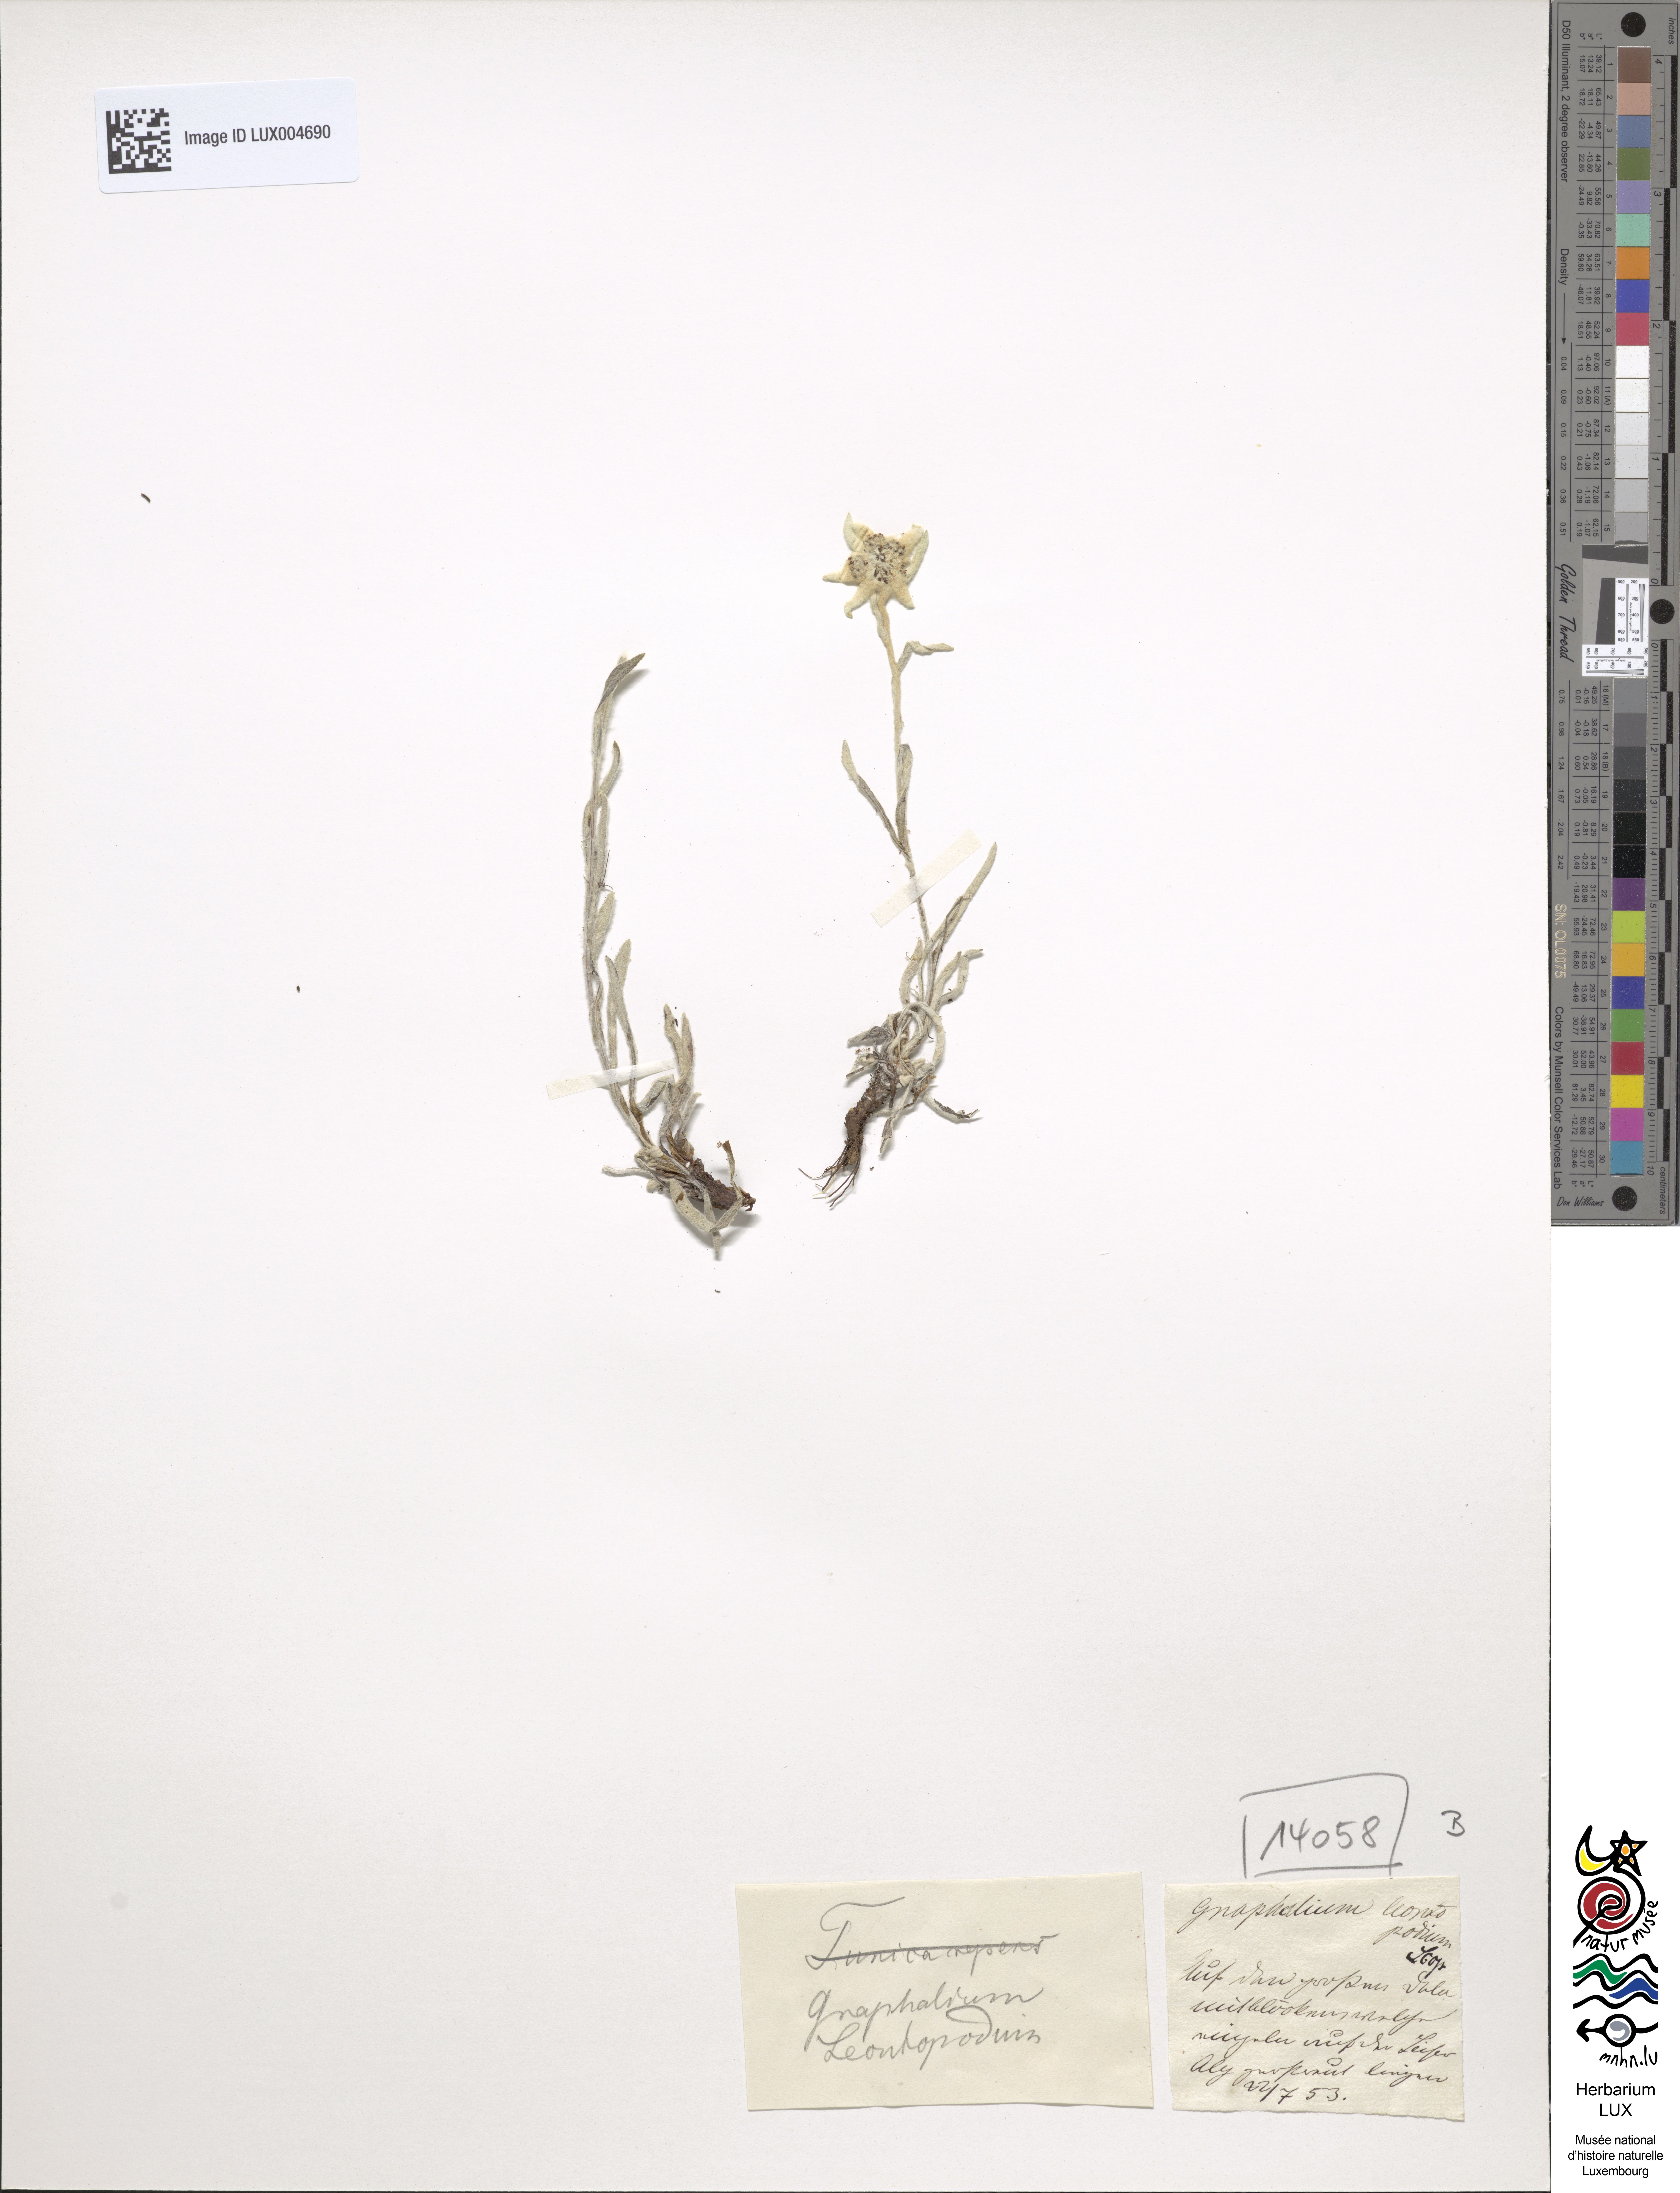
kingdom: Plantae
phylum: Tracheophyta
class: Magnoliopsida
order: Asterales
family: Asteraceae
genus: Leontopodium
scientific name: Leontopodium nivale
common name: Edelweiss
